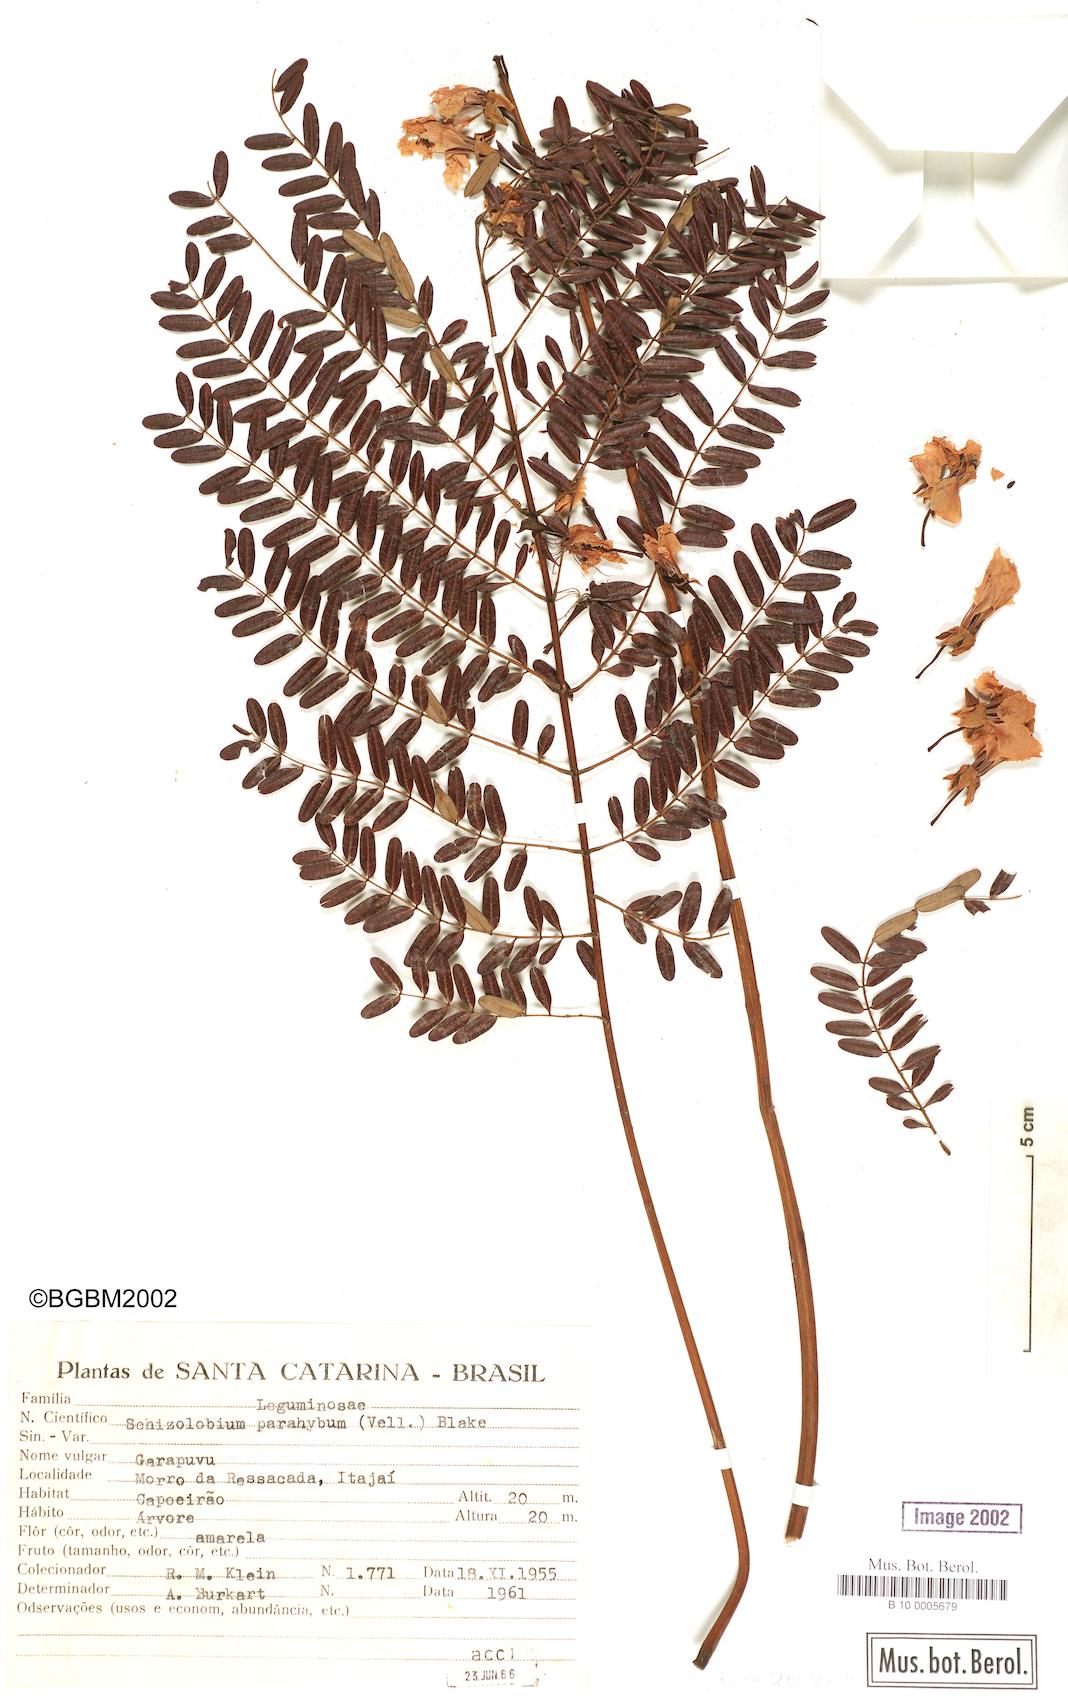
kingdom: Plantae
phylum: Tracheophyta
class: Magnoliopsida
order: Fabales
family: Fabaceae
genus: Schizolobium
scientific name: Schizolobium parahyba
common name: Brazilian firetree
